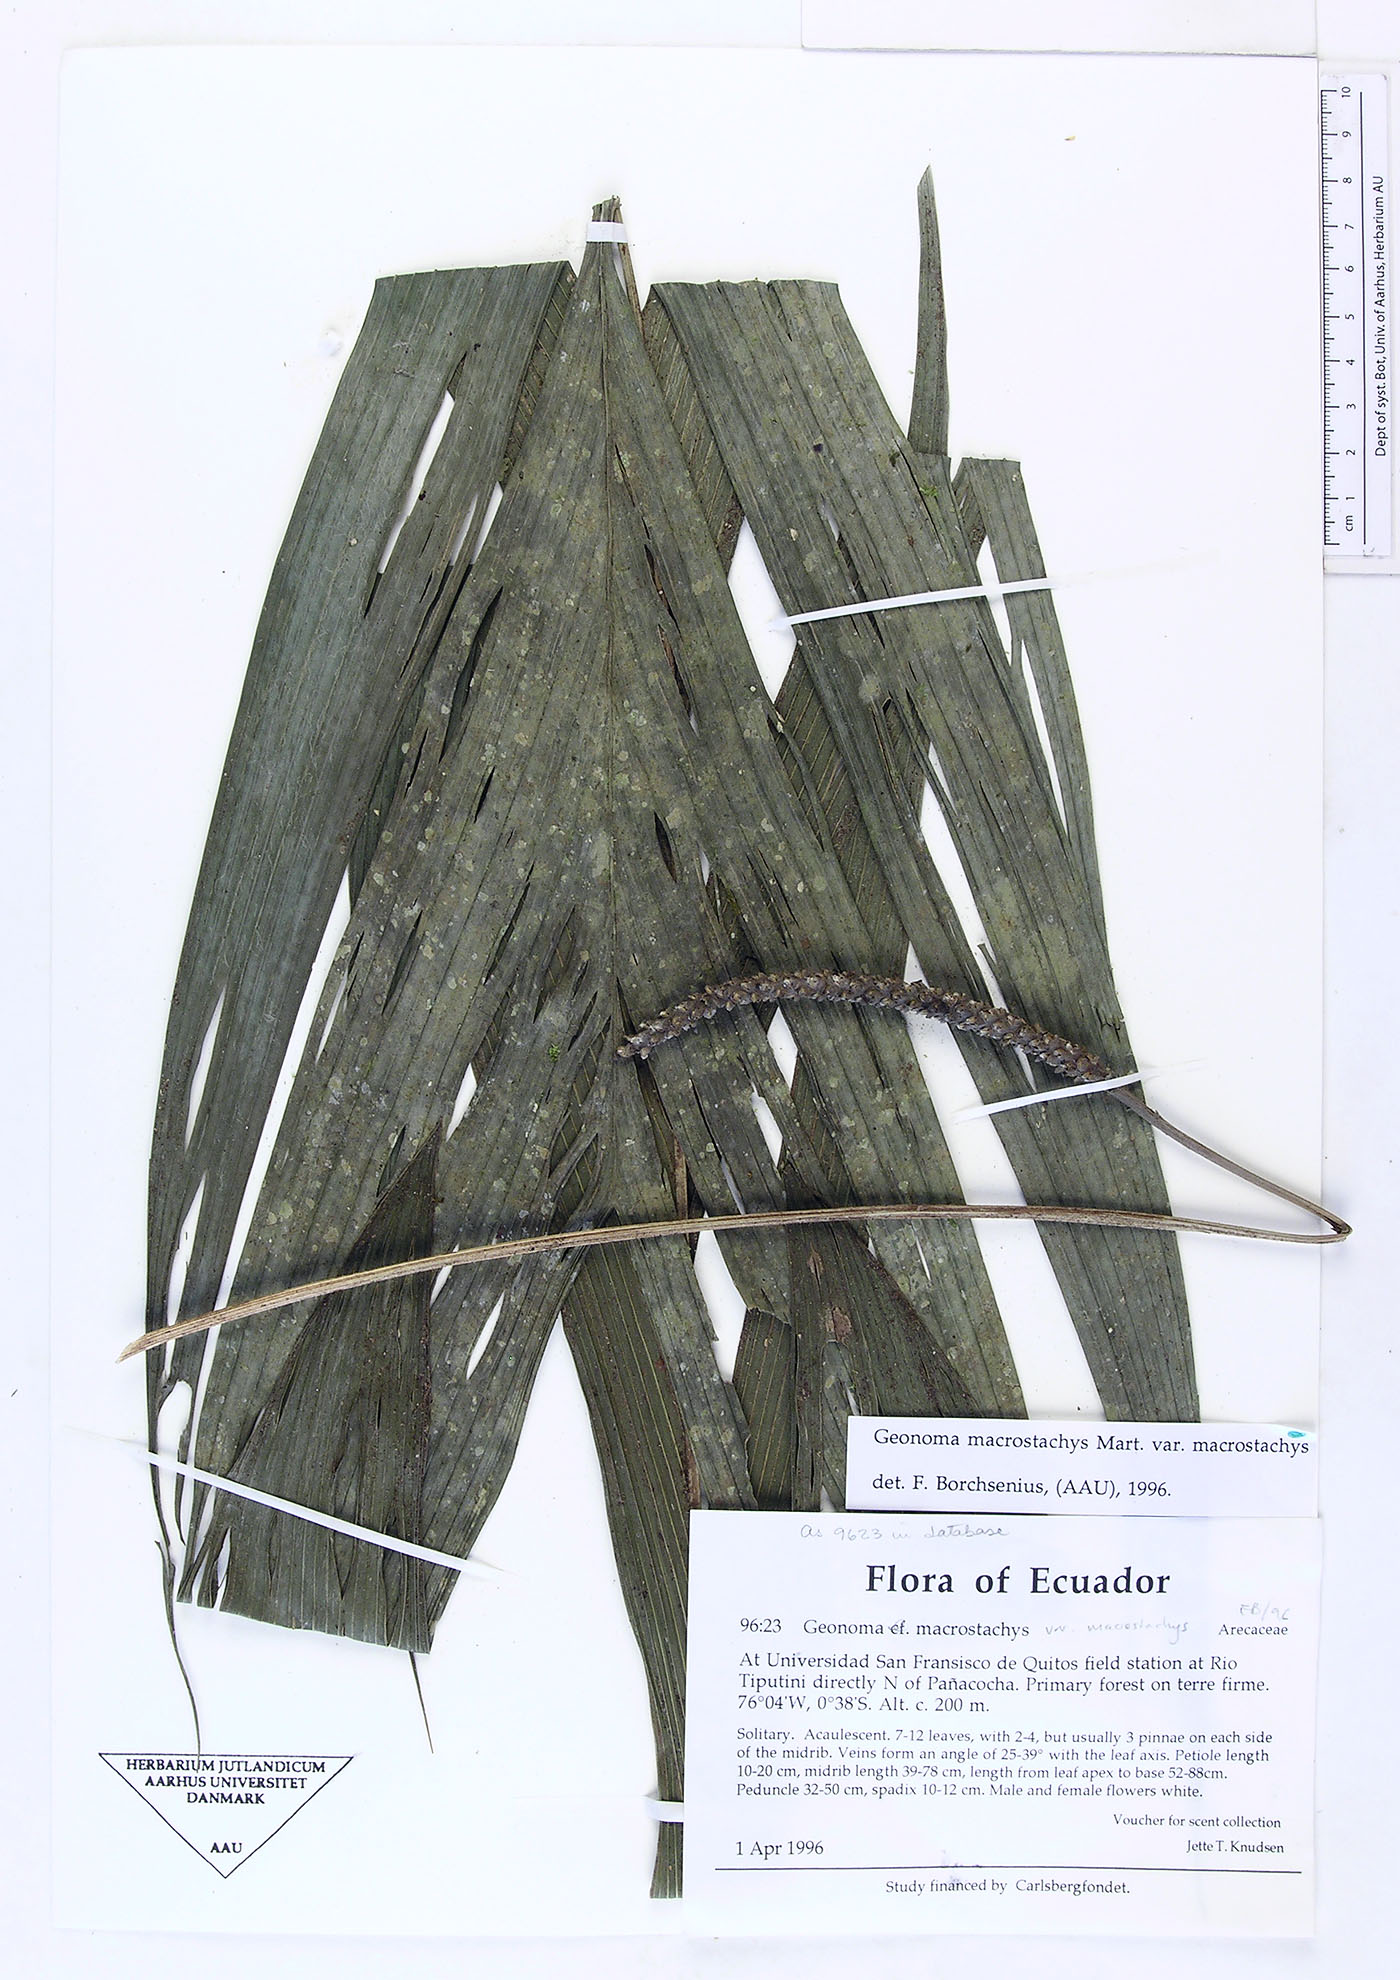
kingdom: Plantae
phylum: Tracheophyta
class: Liliopsida
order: Arecales
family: Arecaceae
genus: Geonoma
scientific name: Geonoma macrostachys
